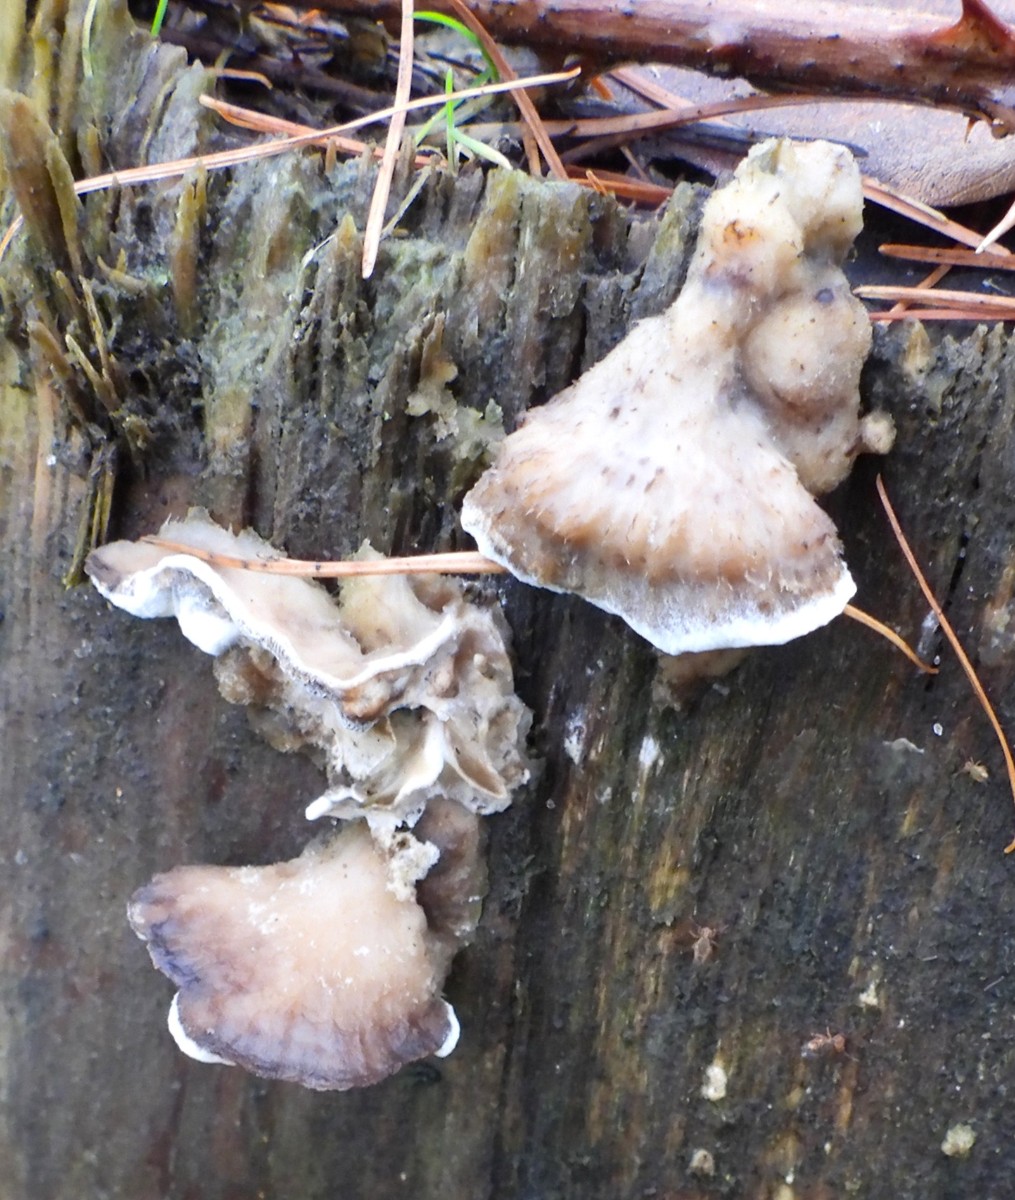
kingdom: Fungi
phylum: Basidiomycota
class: Agaricomycetes
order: Polyporales
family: Phanerochaetaceae
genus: Bjerkandera
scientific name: Bjerkandera adusta
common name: sveden sodporesvamp
